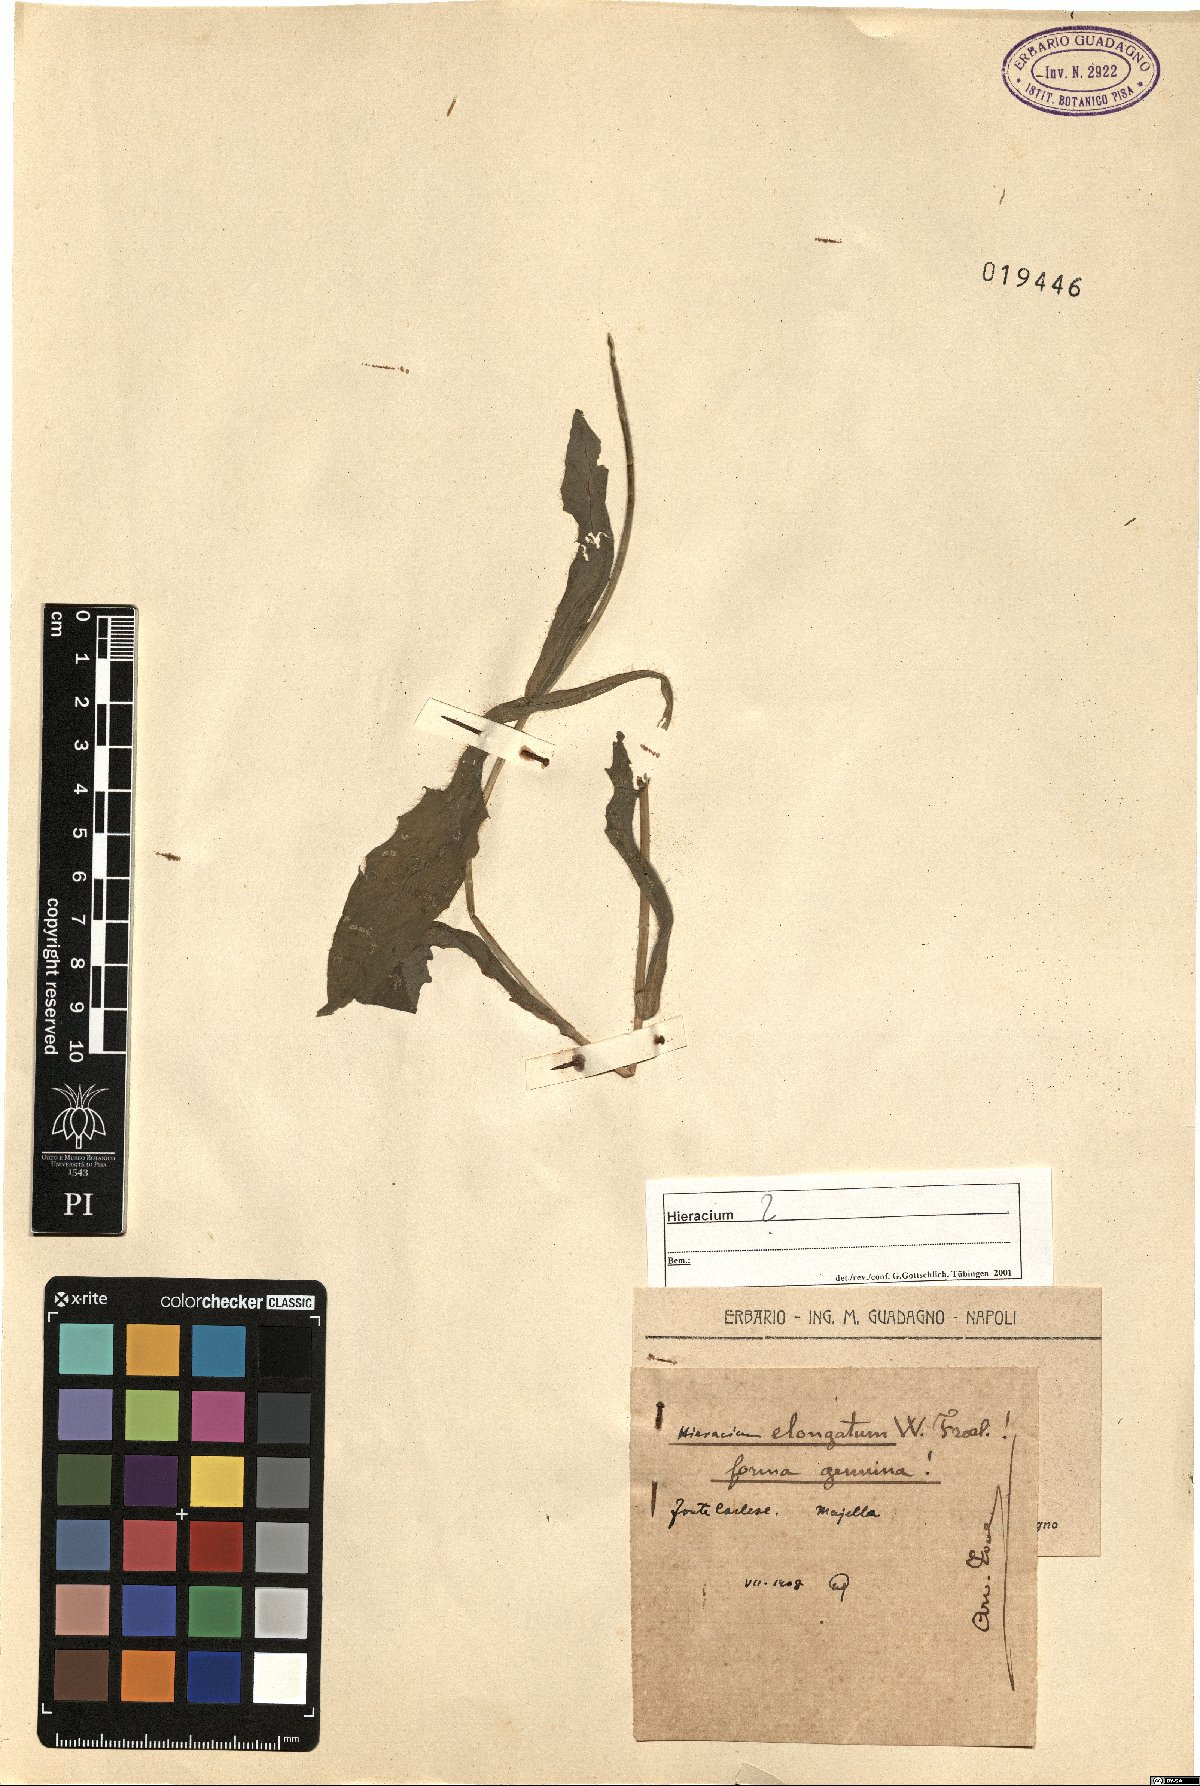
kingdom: Plantae
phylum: Tracheophyta
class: Magnoliopsida
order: Asterales
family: Asteraceae
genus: Hieracium
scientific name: Hieracium valdepilosum
